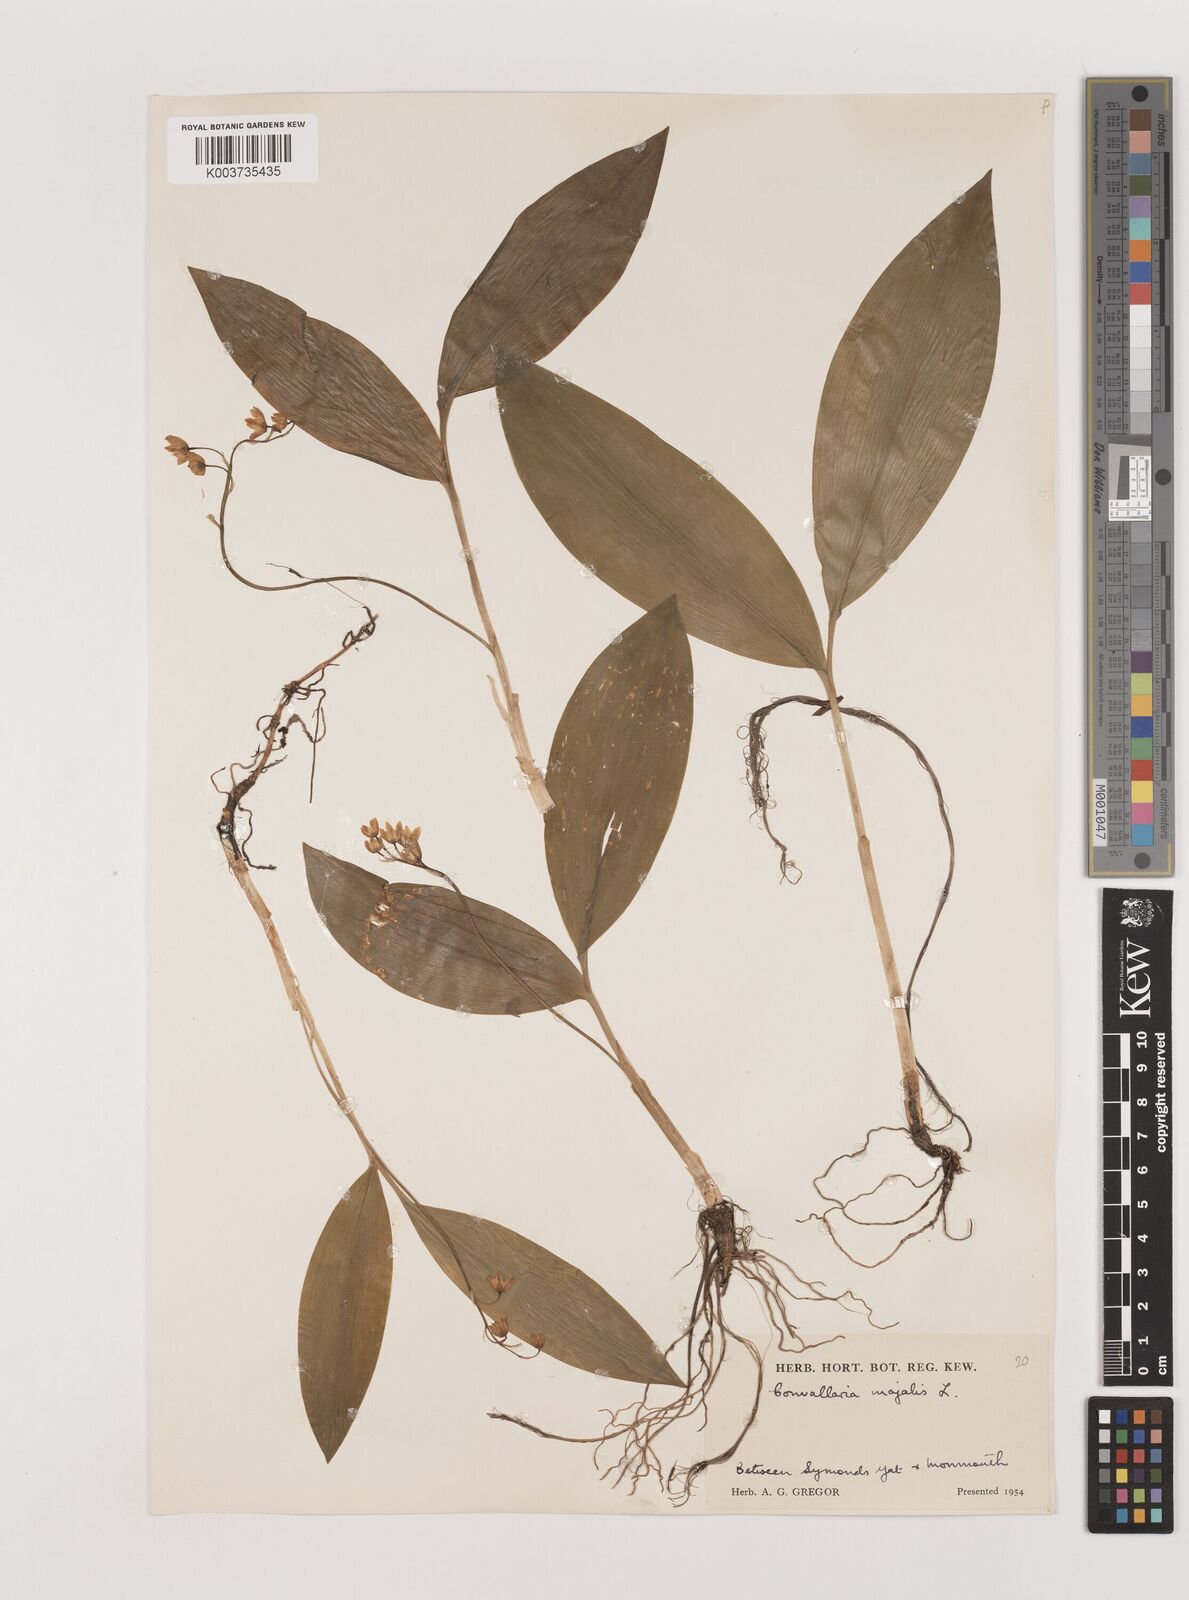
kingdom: Plantae
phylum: Tracheophyta
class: Liliopsida
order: Asparagales
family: Asparagaceae
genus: Convallaria
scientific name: Convallaria majalis
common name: Lily-of-the-valley
